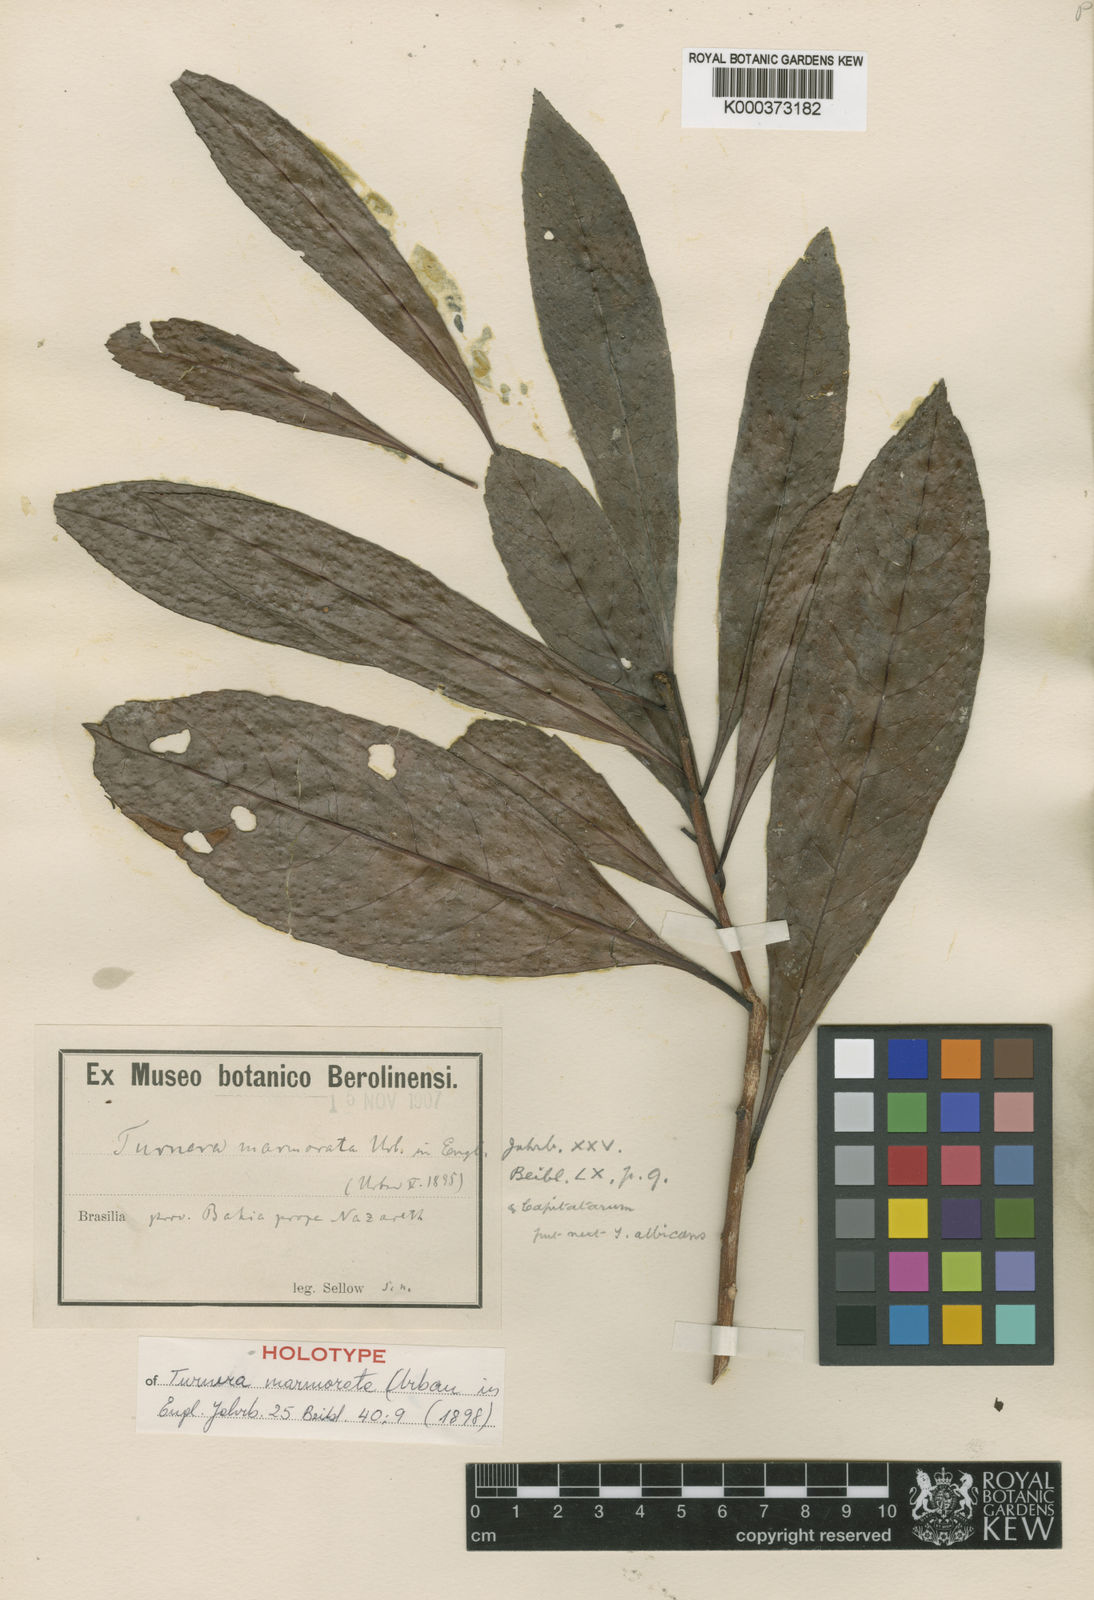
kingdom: Plantae
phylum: Tracheophyta
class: Magnoliopsida
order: Malpighiales
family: Turneraceae
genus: Oxossia
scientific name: Oxossia marmorata
